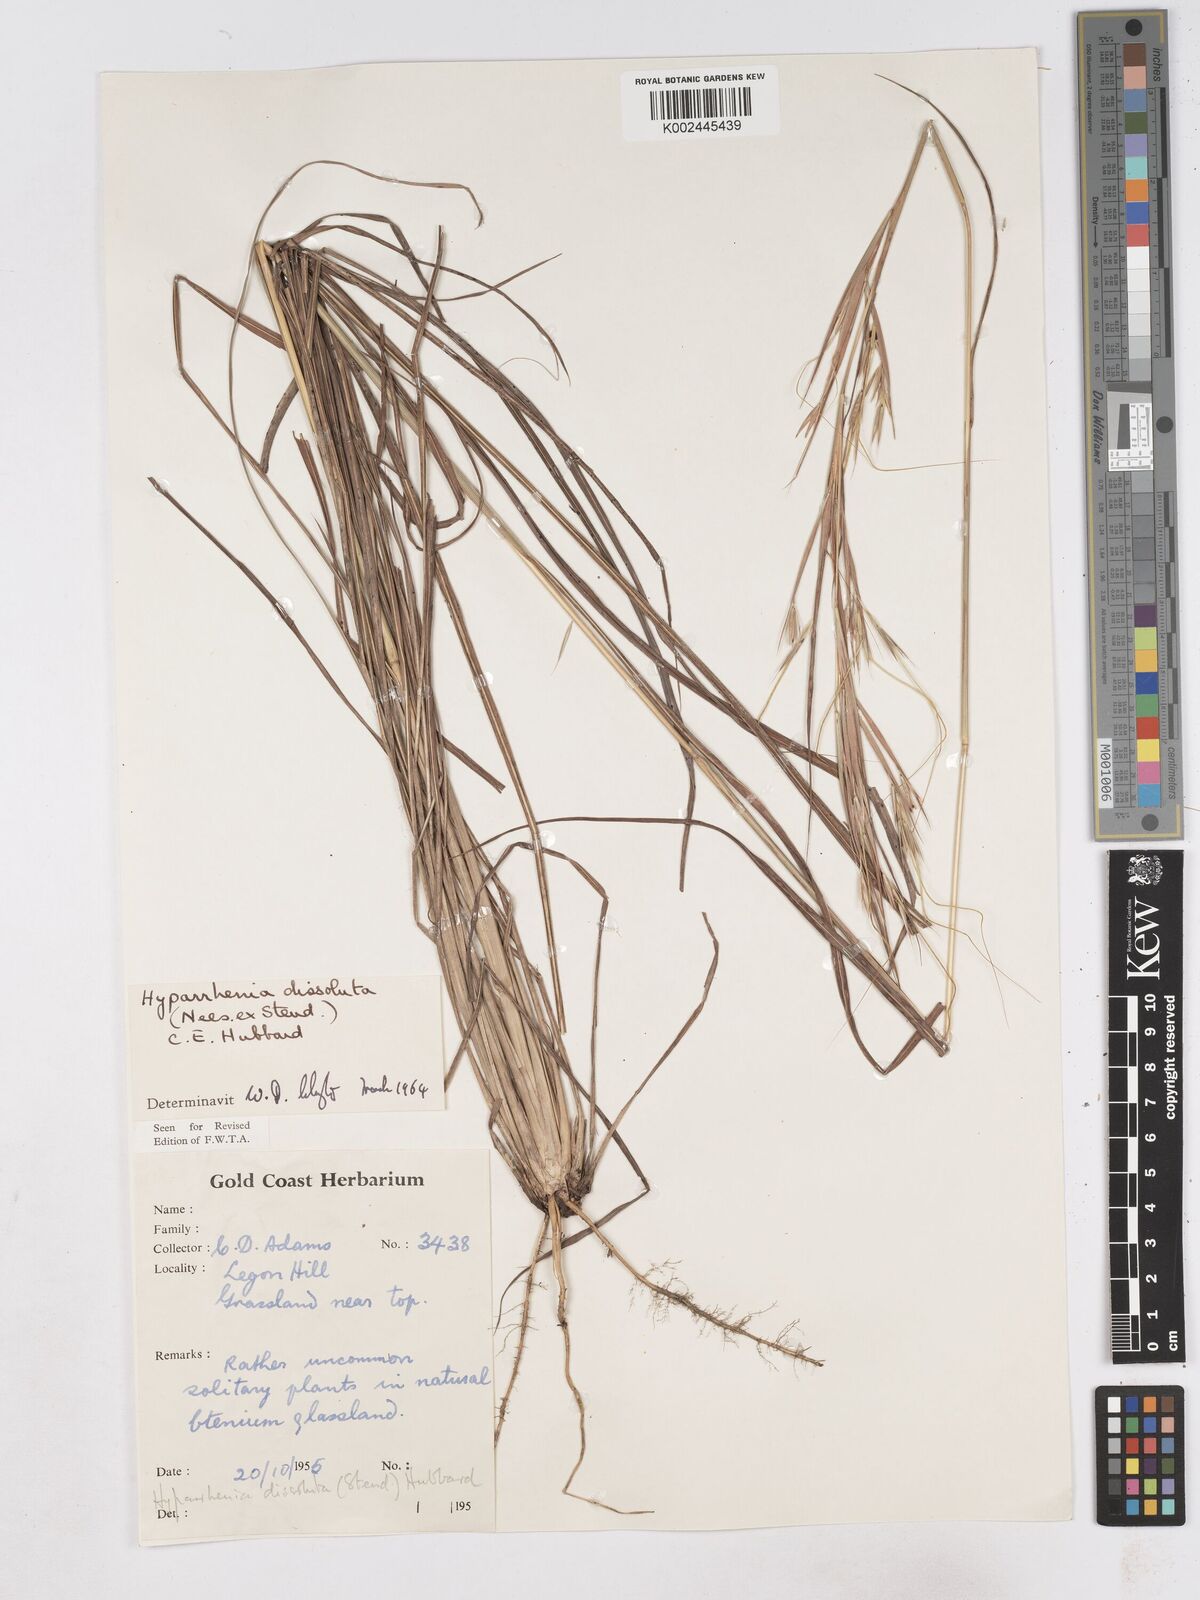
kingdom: Plantae
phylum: Tracheophyta
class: Liliopsida
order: Poales
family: Poaceae
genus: Hyperthelia
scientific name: Hyperthelia dissoluta
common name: Yellow thatching grass
